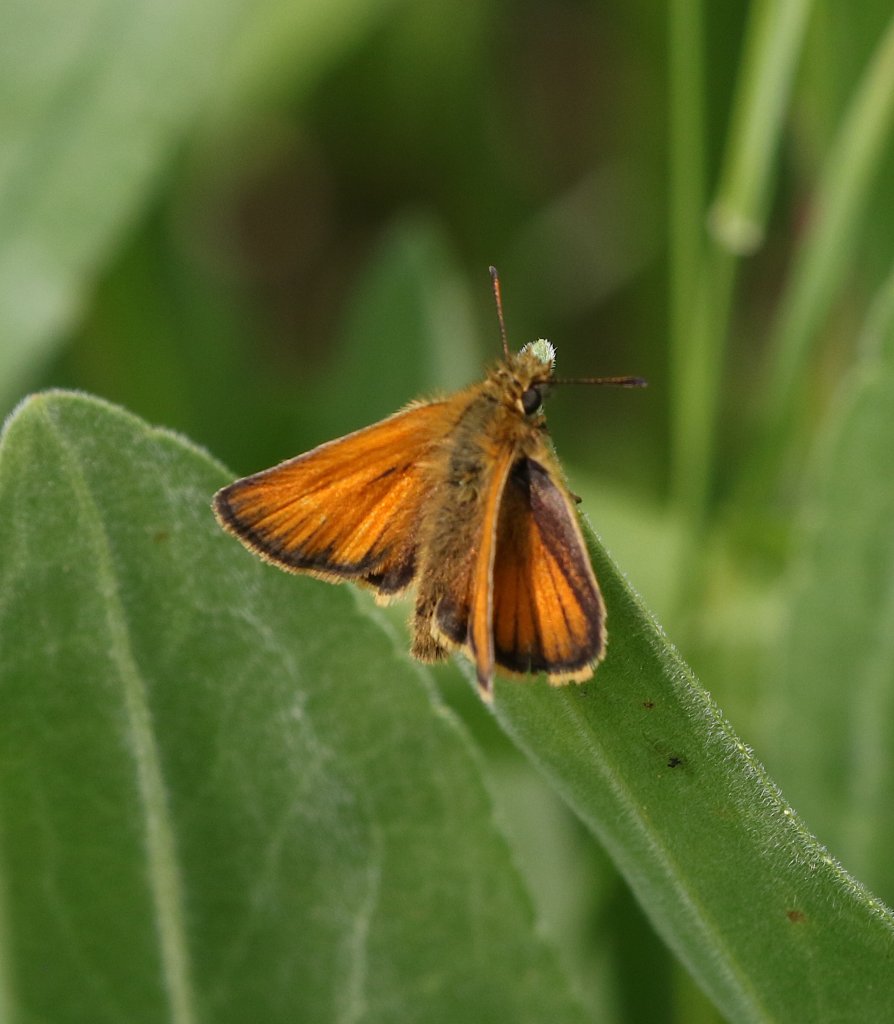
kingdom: Animalia
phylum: Arthropoda
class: Insecta
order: Lepidoptera
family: Hesperiidae
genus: Thymelicus
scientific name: Thymelicus lineola
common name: European Skipper
